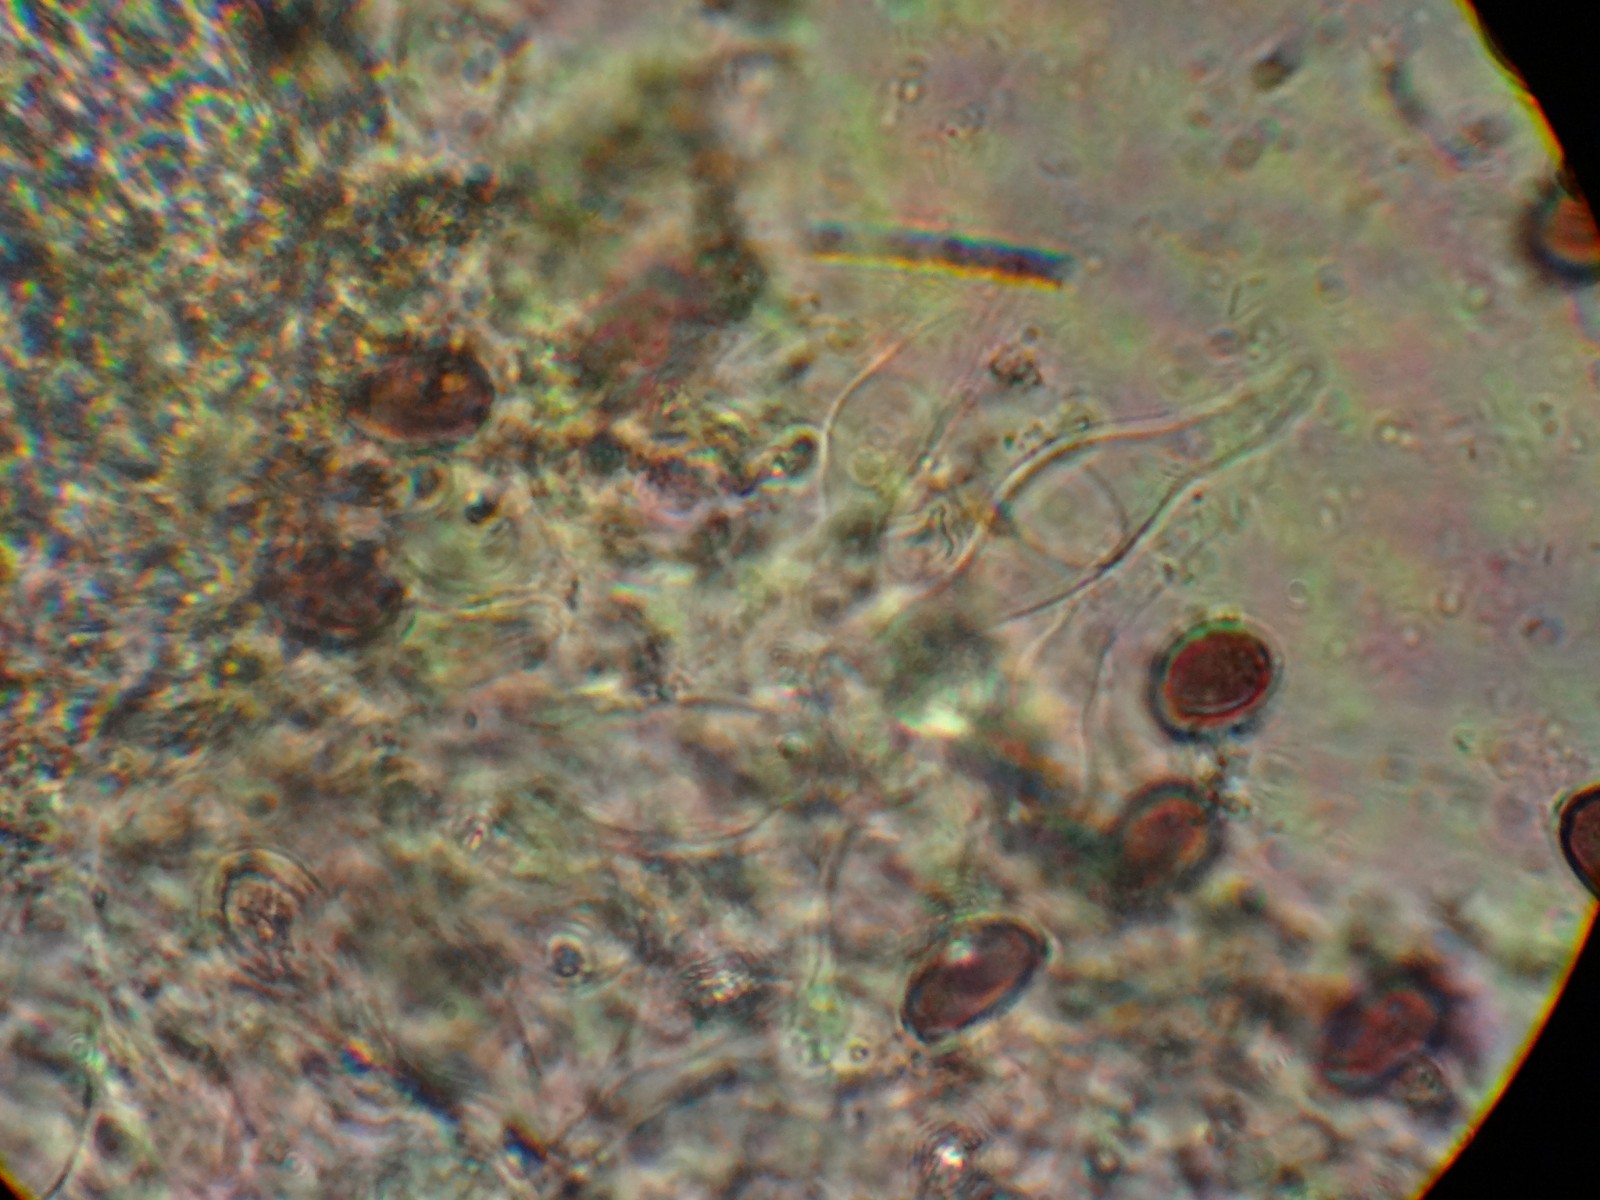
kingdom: Fungi
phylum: Basidiomycota
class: Agaricomycetes
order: Agaricales
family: Strophariaceae
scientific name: Strophariaceae
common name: bredbladfamilien
